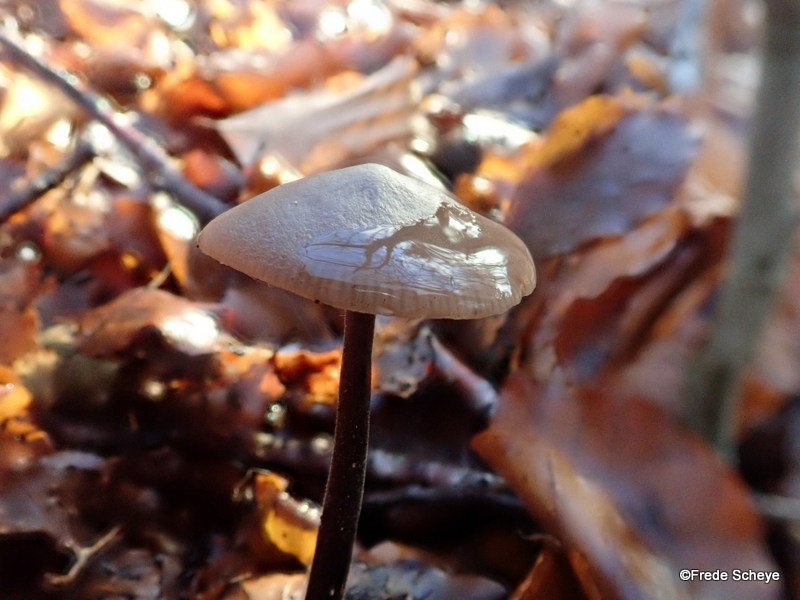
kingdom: Fungi
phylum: Basidiomycota
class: Agaricomycetes
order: Agaricales
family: Omphalotaceae
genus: Mycetinis
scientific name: Mycetinis alliaceus
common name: stor løghat
